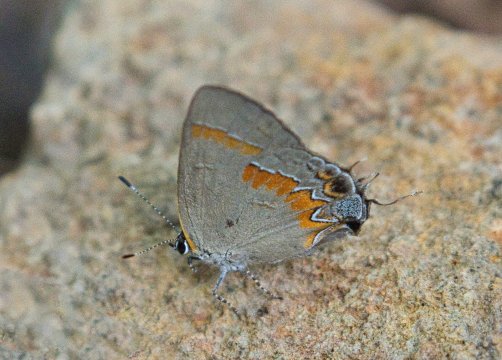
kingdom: Animalia
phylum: Arthropoda
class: Insecta
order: Lepidoptera
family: Lycaenidae
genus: Calycopis
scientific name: Calycopis cecrops
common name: Red-banded Hairstreak
